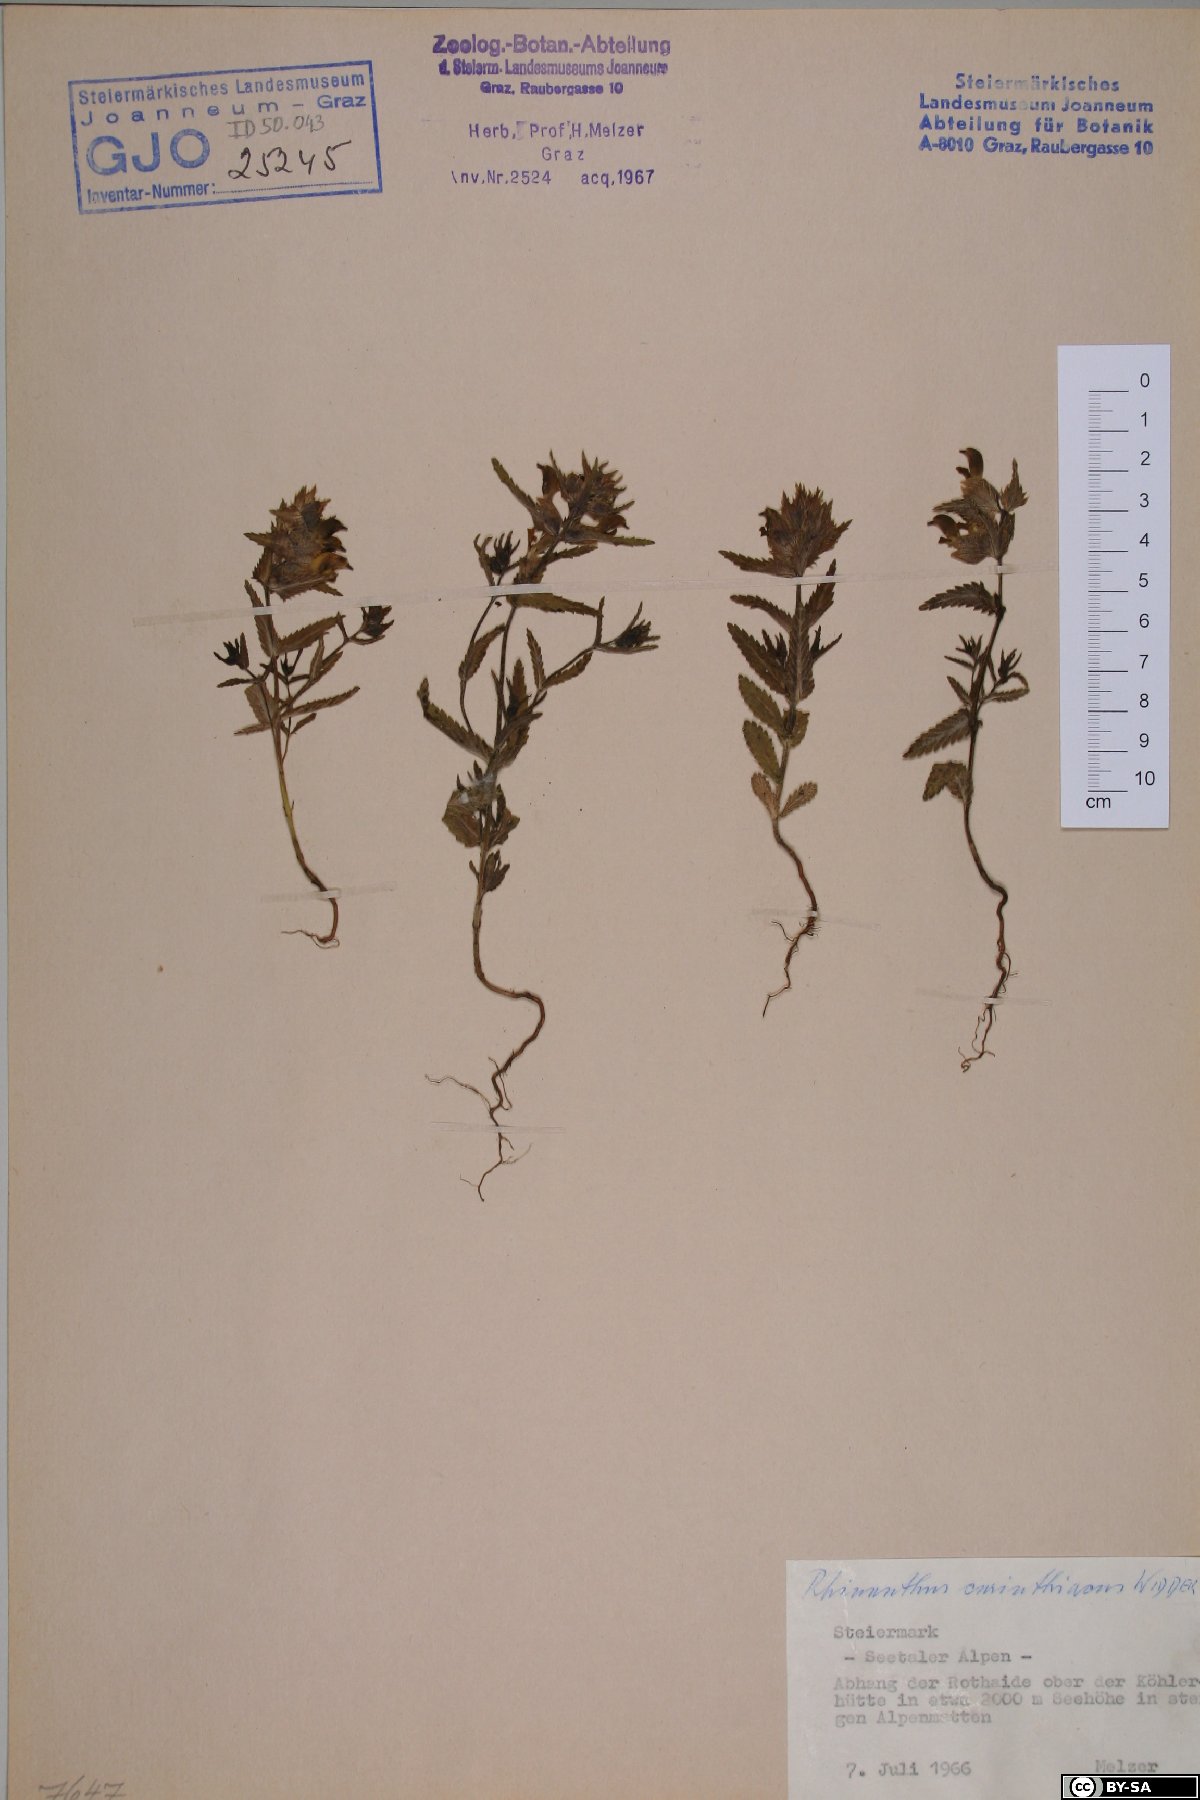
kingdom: Plantae
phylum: Tracheophyta
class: Magnoliopsida
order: Lamiales
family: Orobanchaceae
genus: Rhinanthus
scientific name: Rhinanthus carinthiacus
